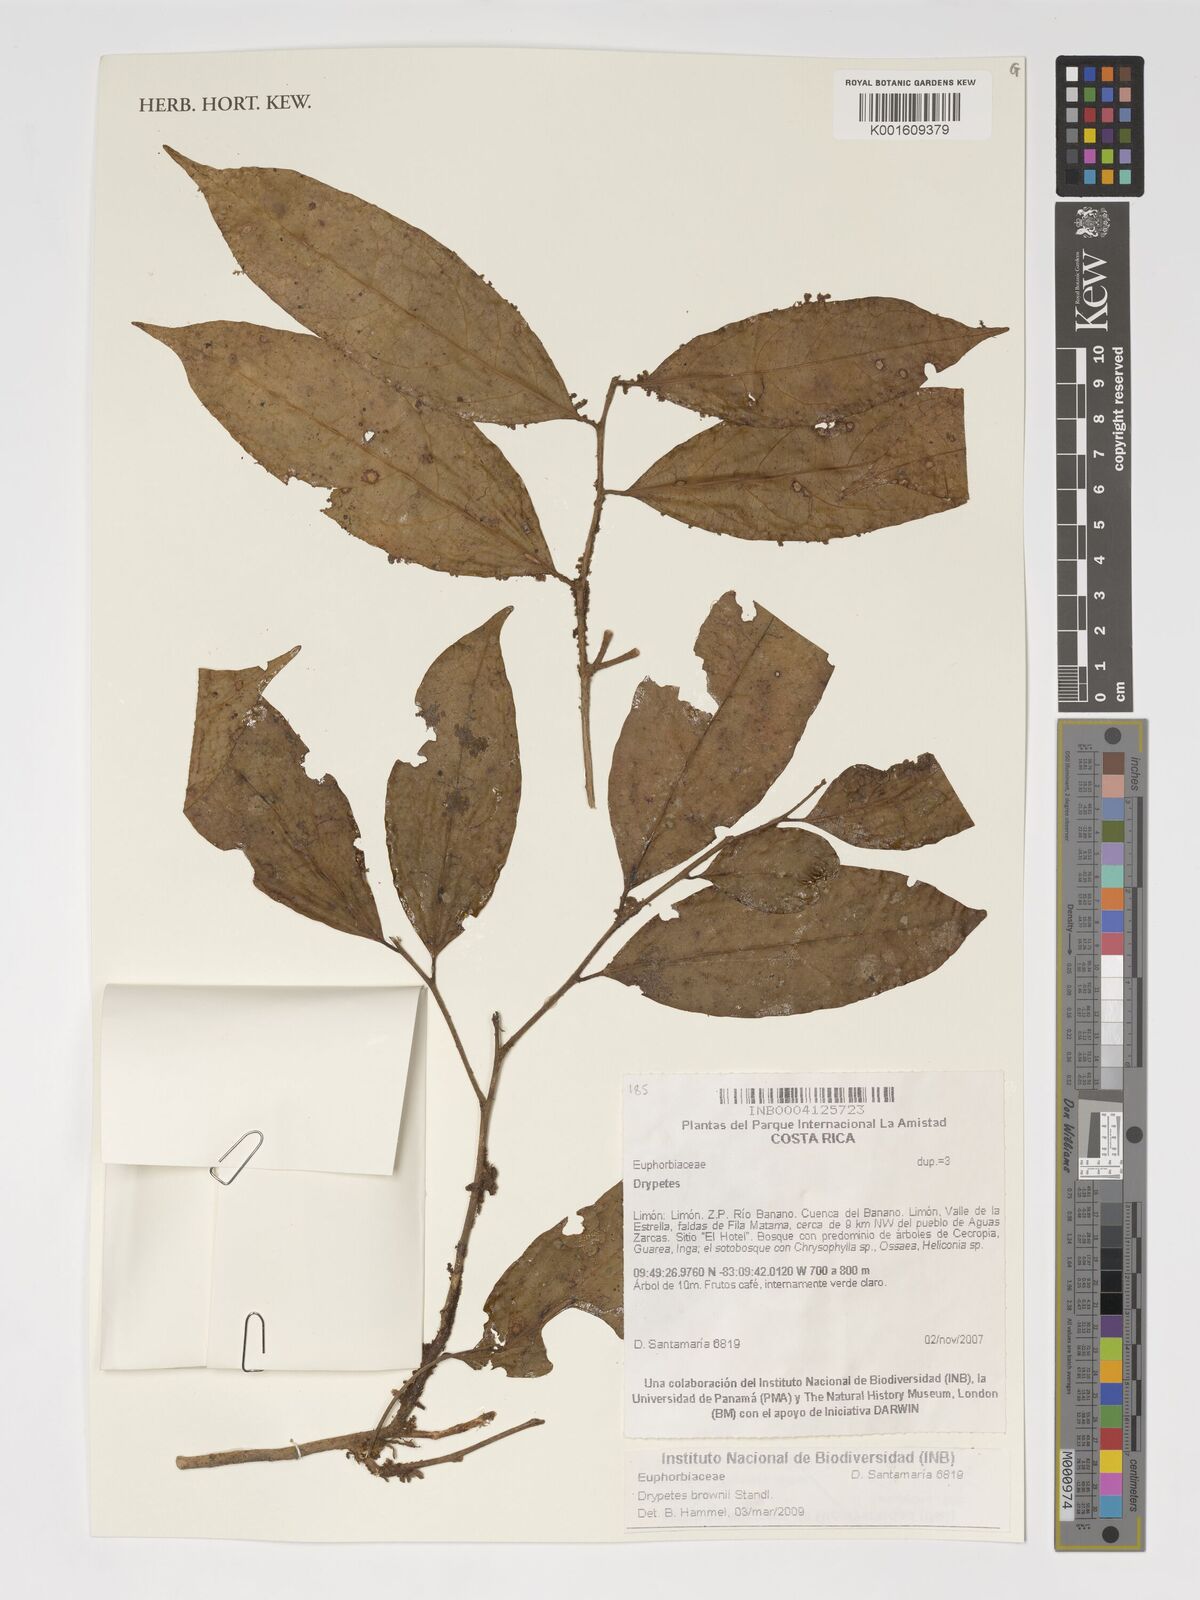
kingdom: Plantae
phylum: Tracheophyta
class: Magnoliopsida
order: Malpighiales
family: Putranjivaceae
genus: Drypetes
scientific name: Drypetes brownii
